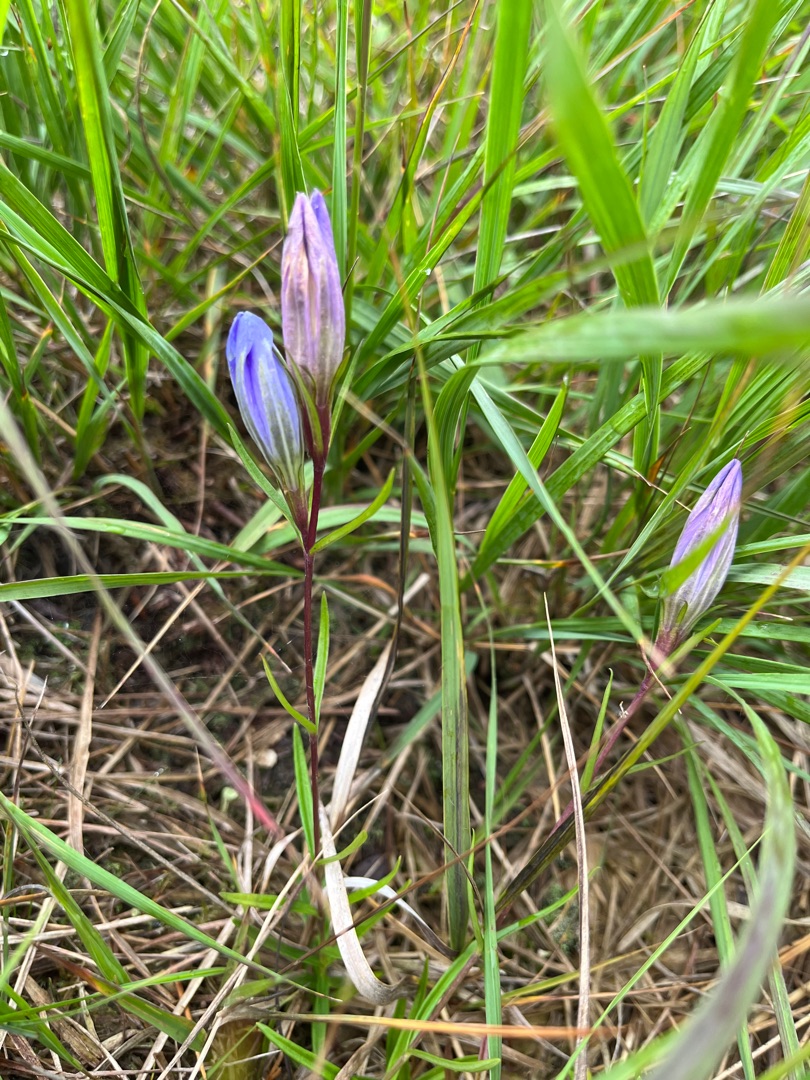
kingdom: Plantae
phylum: Tracheophyta
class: Magnoliopsida
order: Gentianales
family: Gentianaceae
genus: Gentiana
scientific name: Gentiana pneumonanthe
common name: Klokke-ensian
